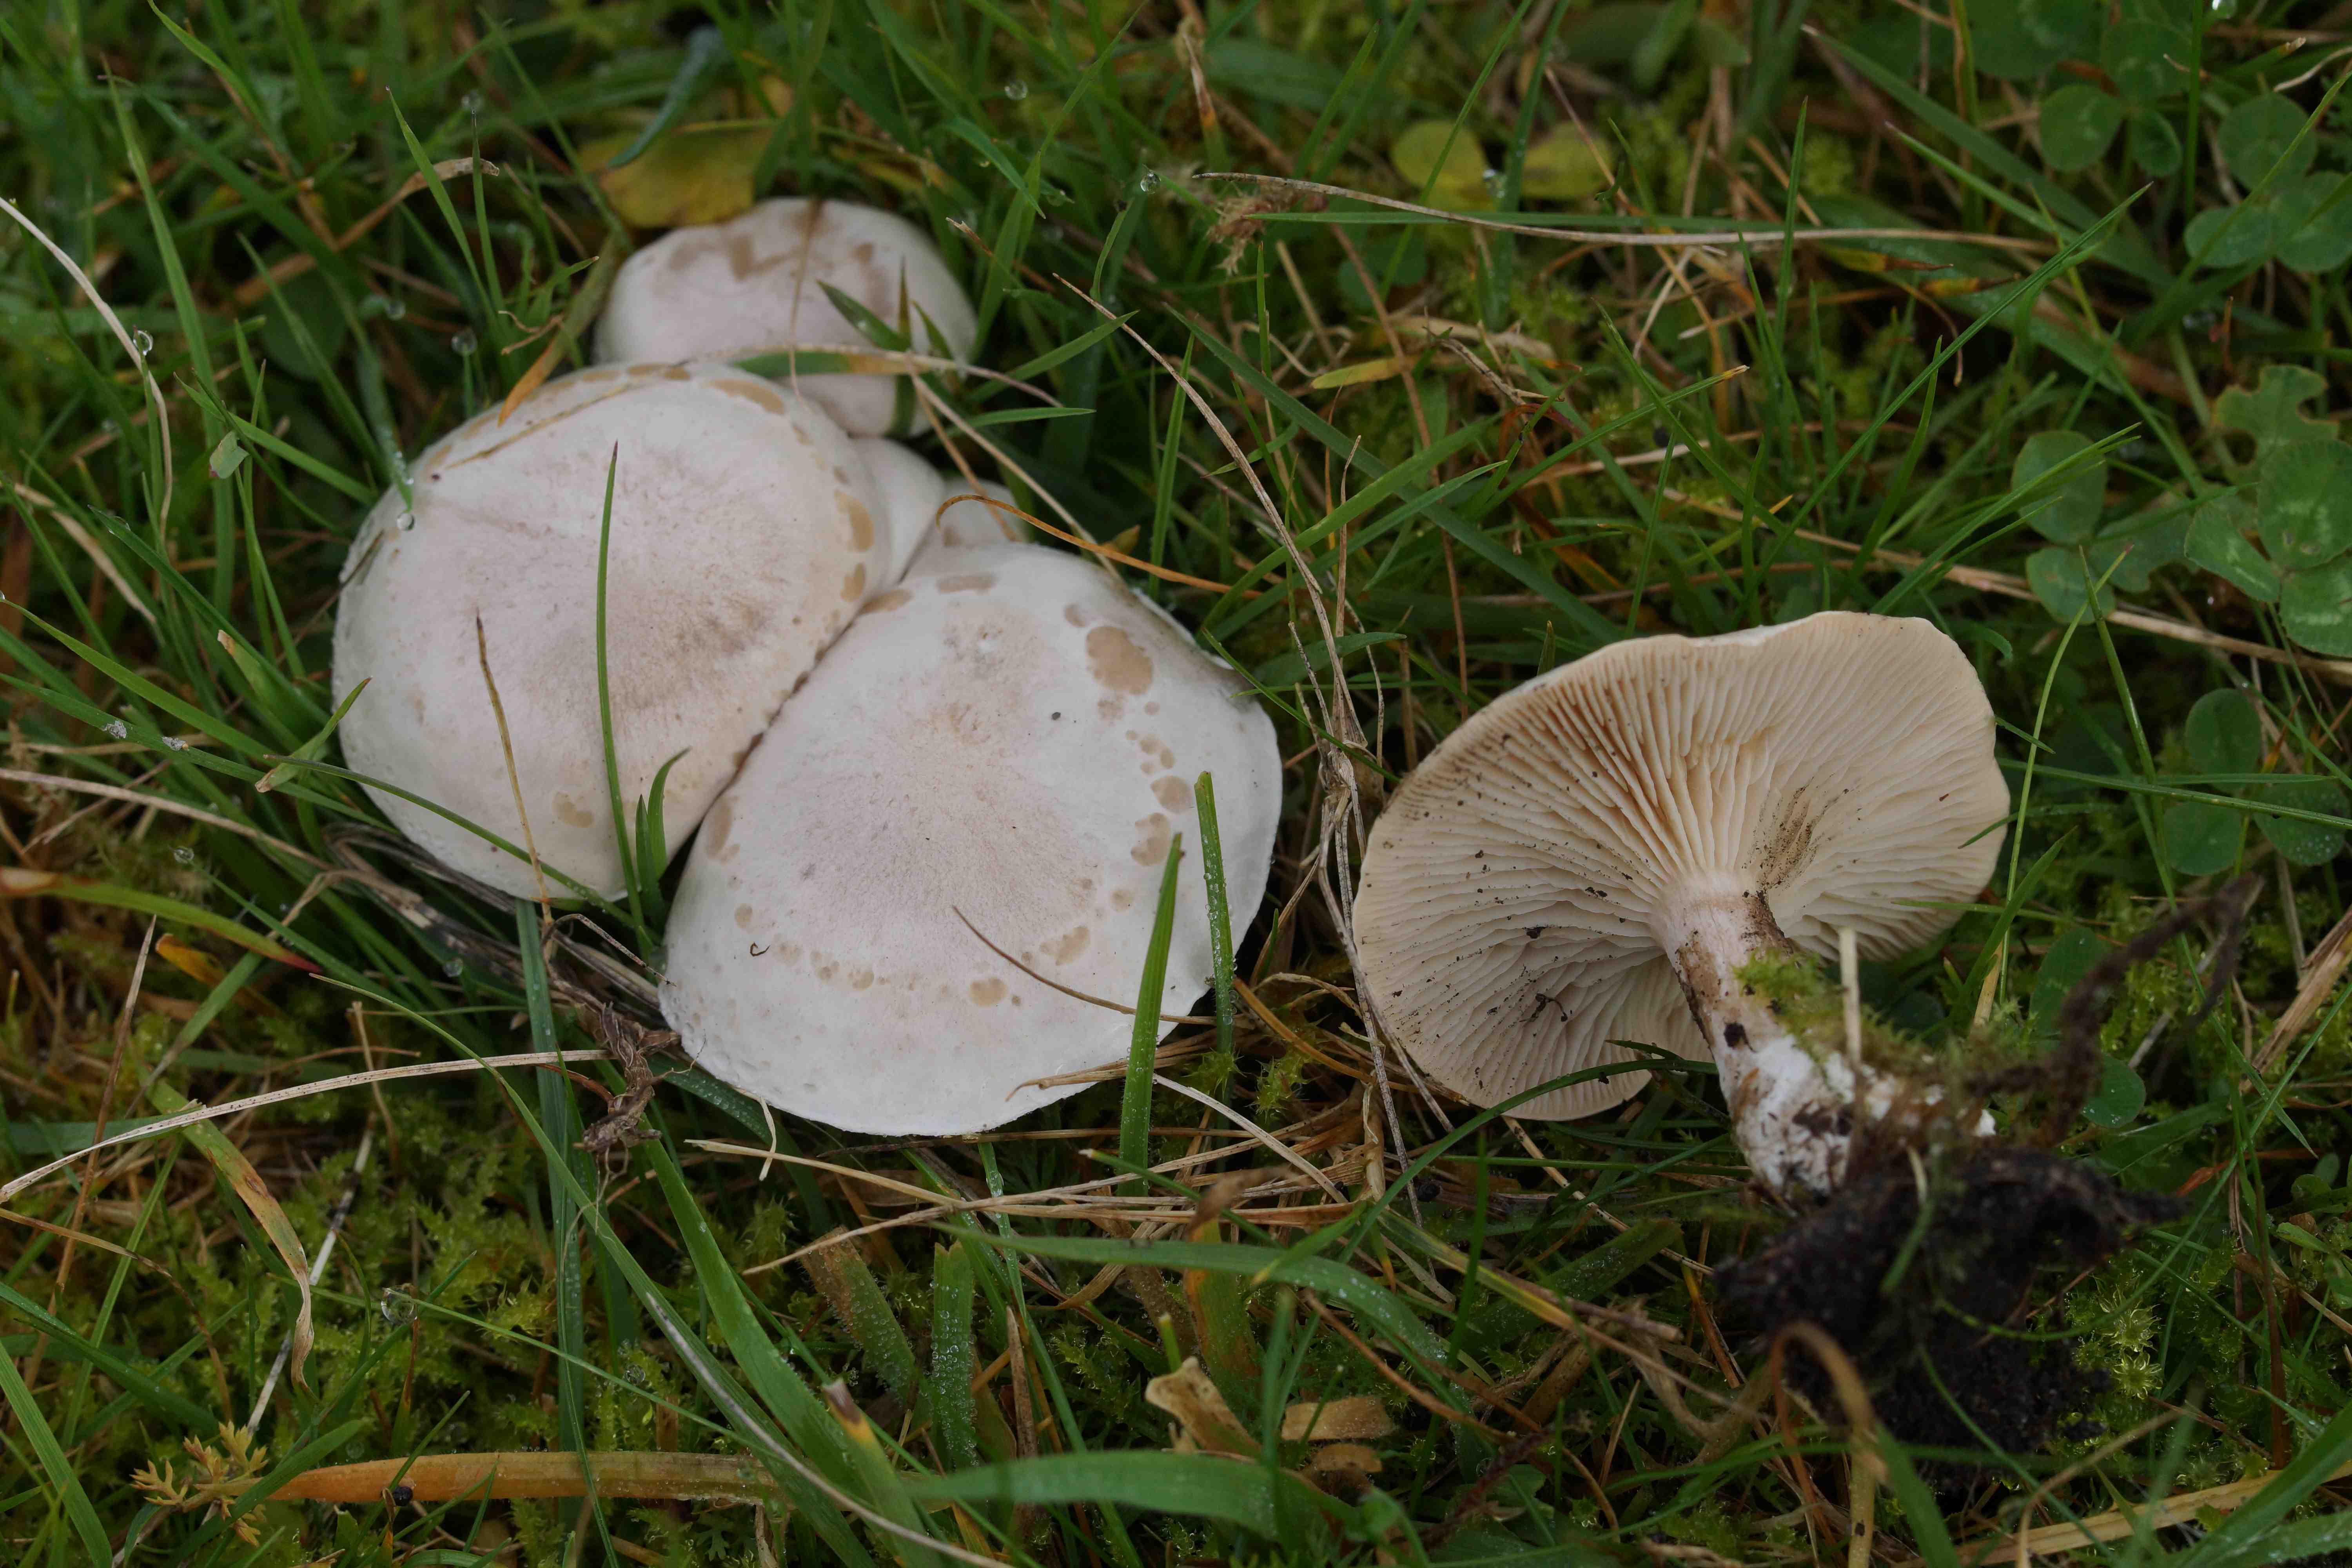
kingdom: Fungi
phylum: Basidiomycota
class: Agaricomycetes
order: Agaricales
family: Tricholomataceae
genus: Clitocybe
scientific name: Clitocybe rivulosa
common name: eng-tragthat
